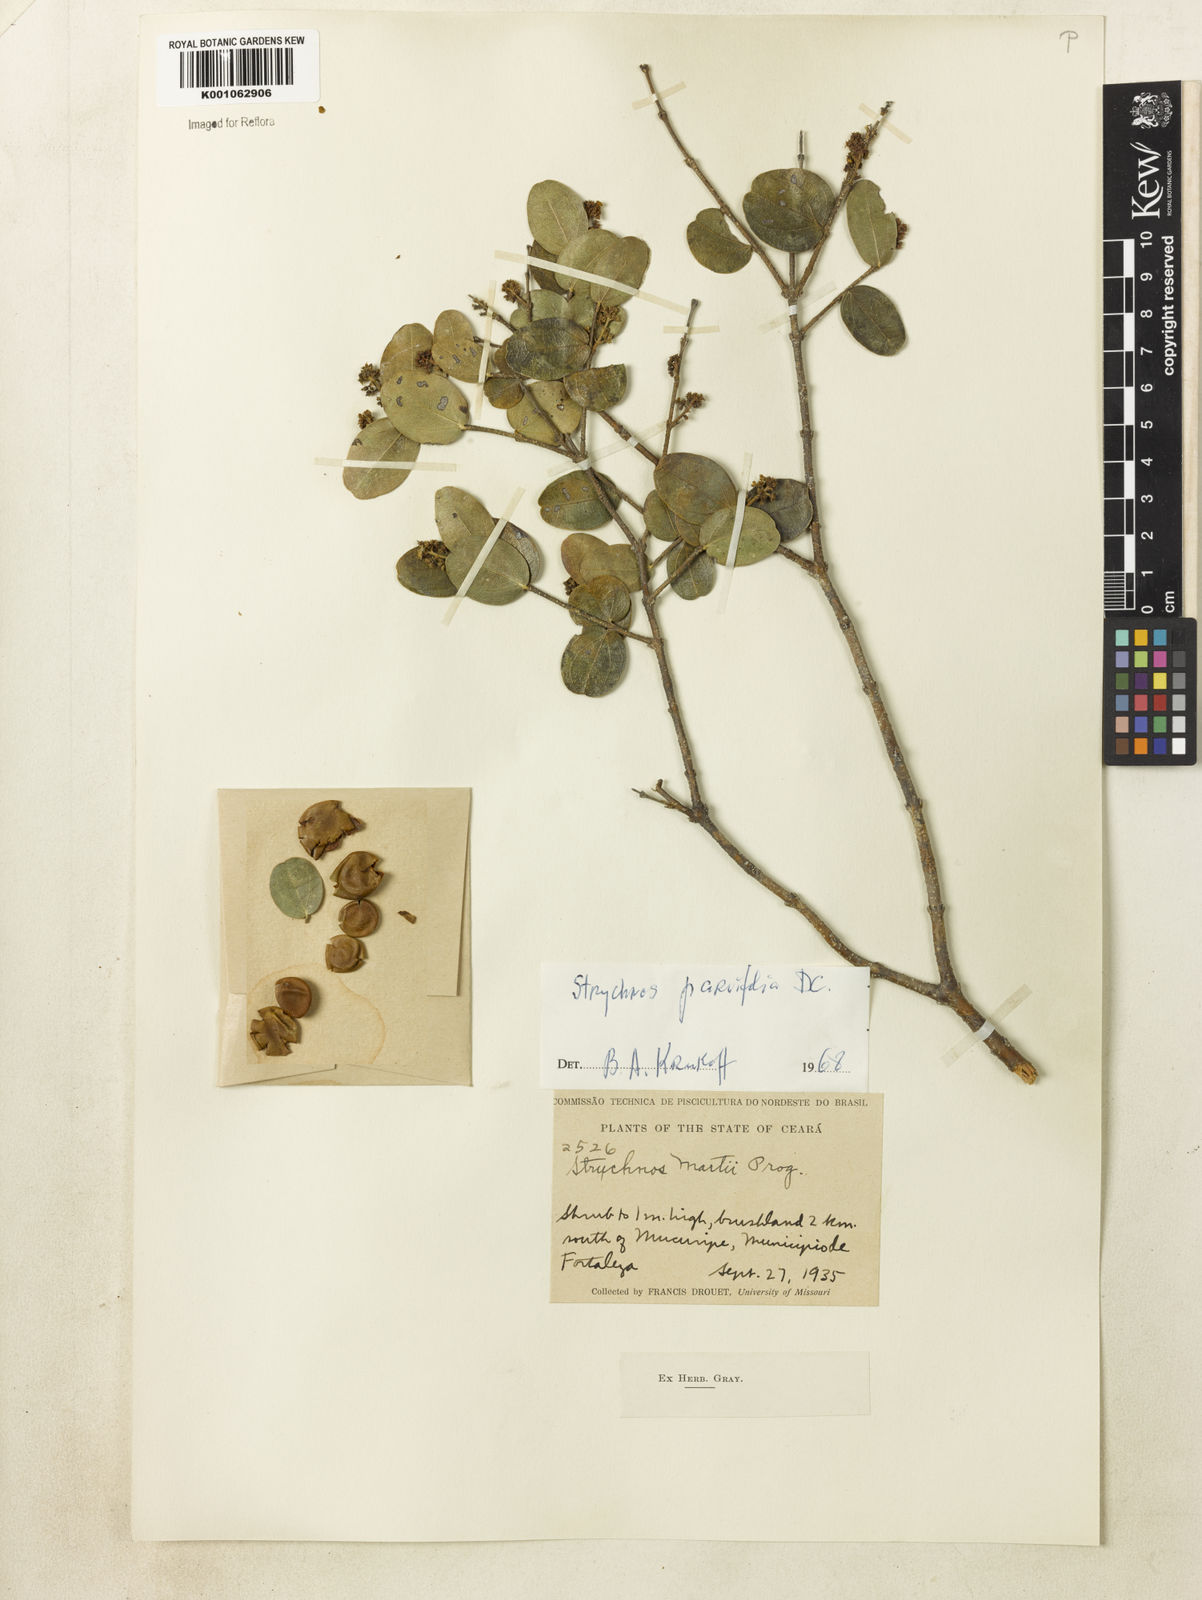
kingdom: Plantae
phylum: Tracheophyta
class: Magnoliopsida
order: Gentianales
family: Loganiaceae
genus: Strychnos
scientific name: Strychnos parvifolia
